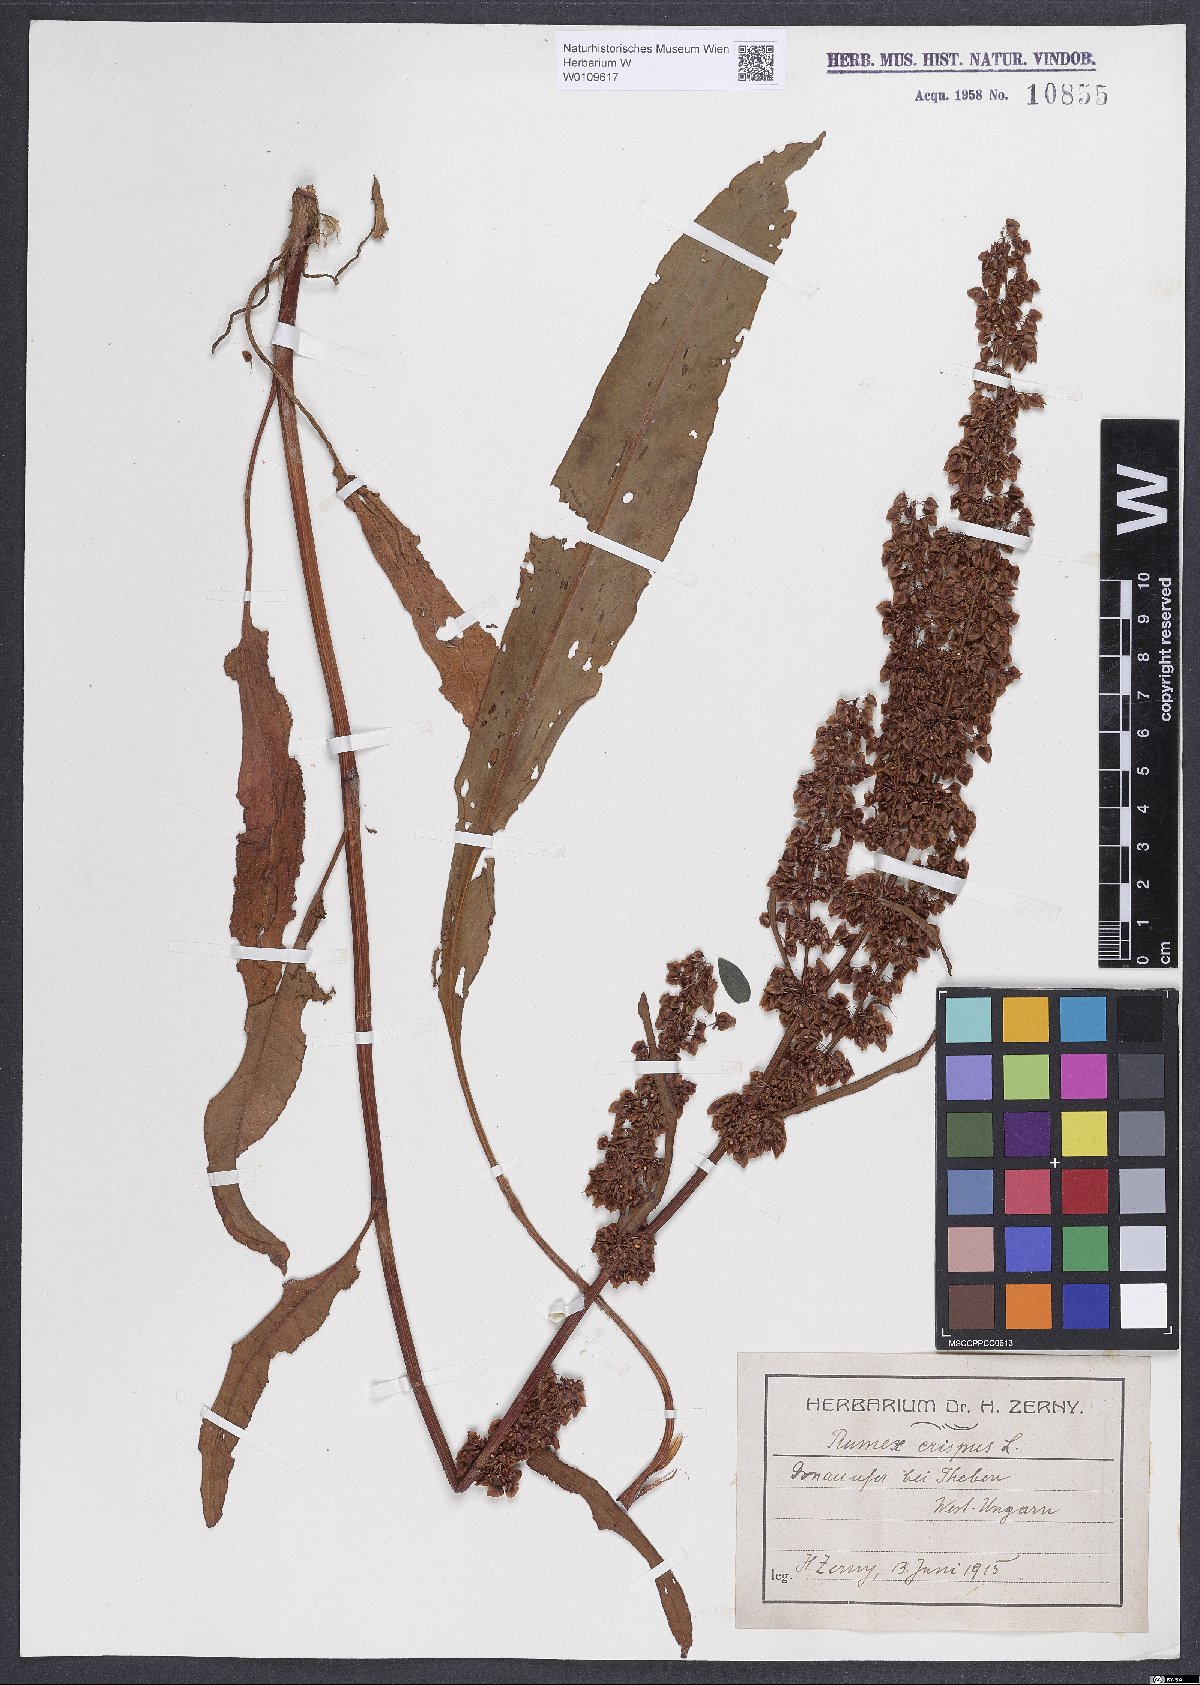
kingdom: Plantae
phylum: Tracheophyta
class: Magnoliopsida
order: Caryophyllales
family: Polygonaceae
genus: Rumex
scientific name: Rumex crispus
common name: Curled dock
